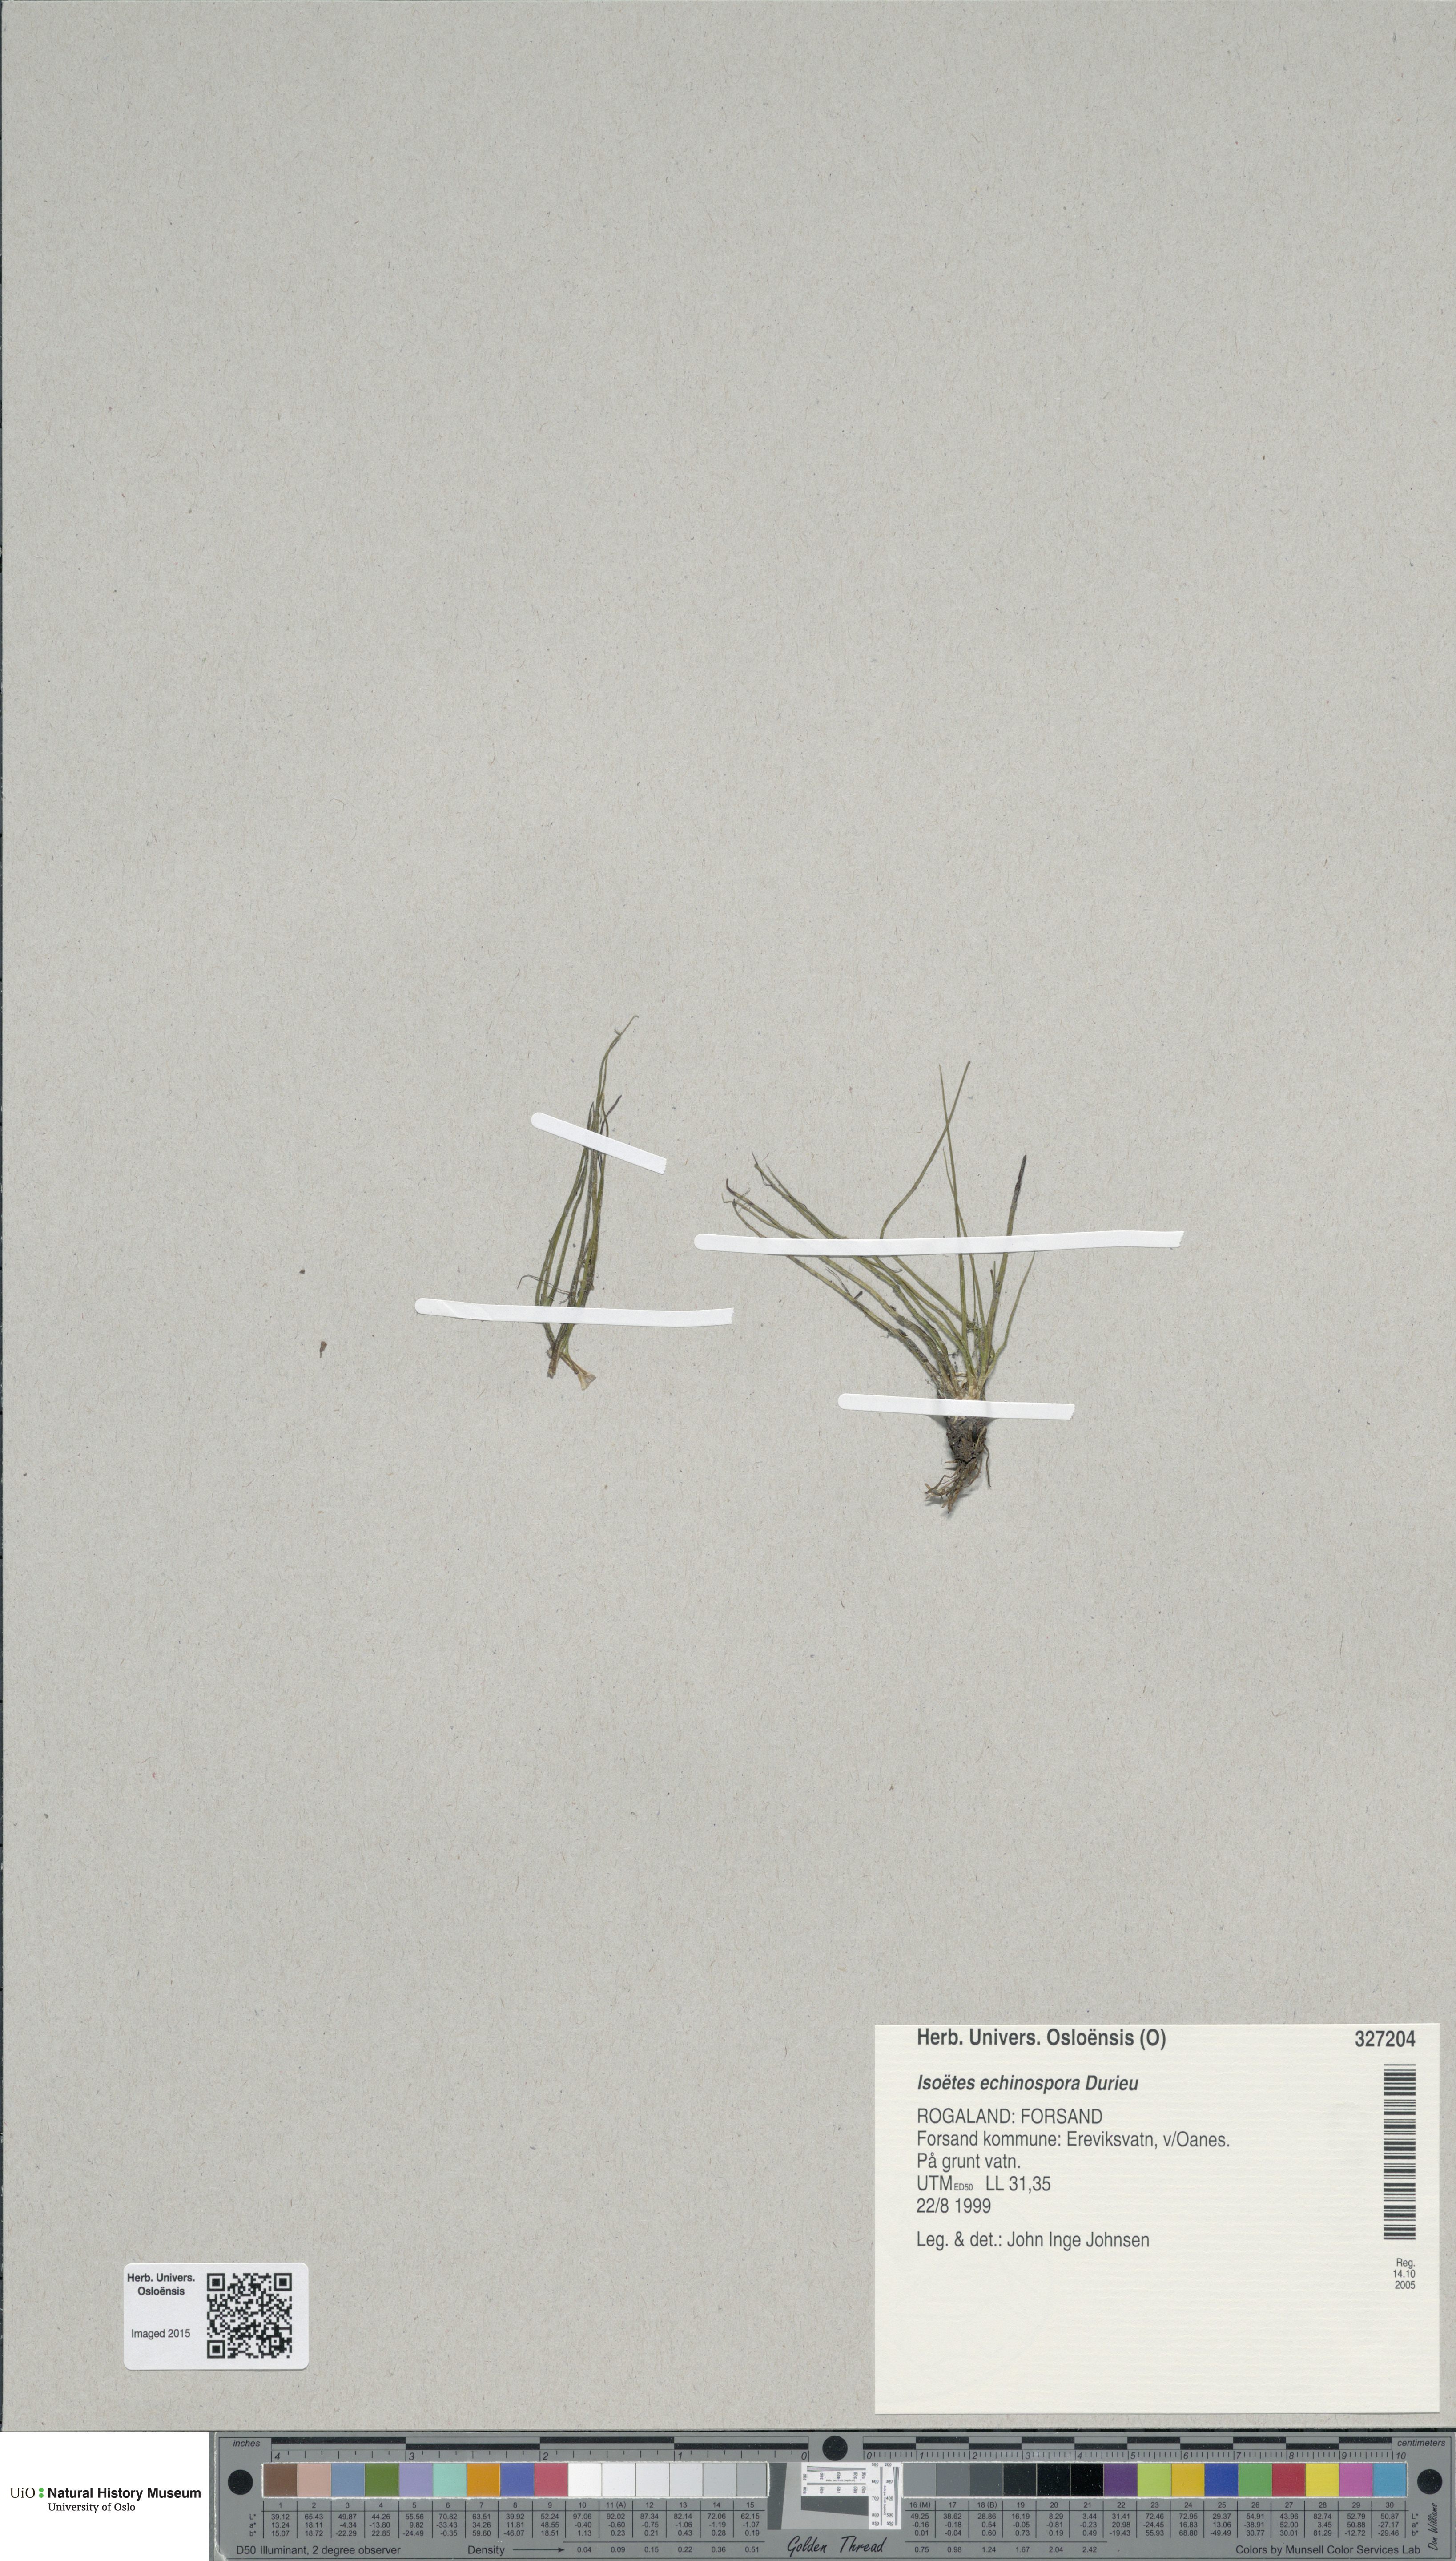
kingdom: Plantae
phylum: Tracheophyta
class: Lycopodiopsida
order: Isoetales
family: Isoetaceae
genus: Isoetes
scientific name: Isoetes echinospora
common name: Spring quillwort
